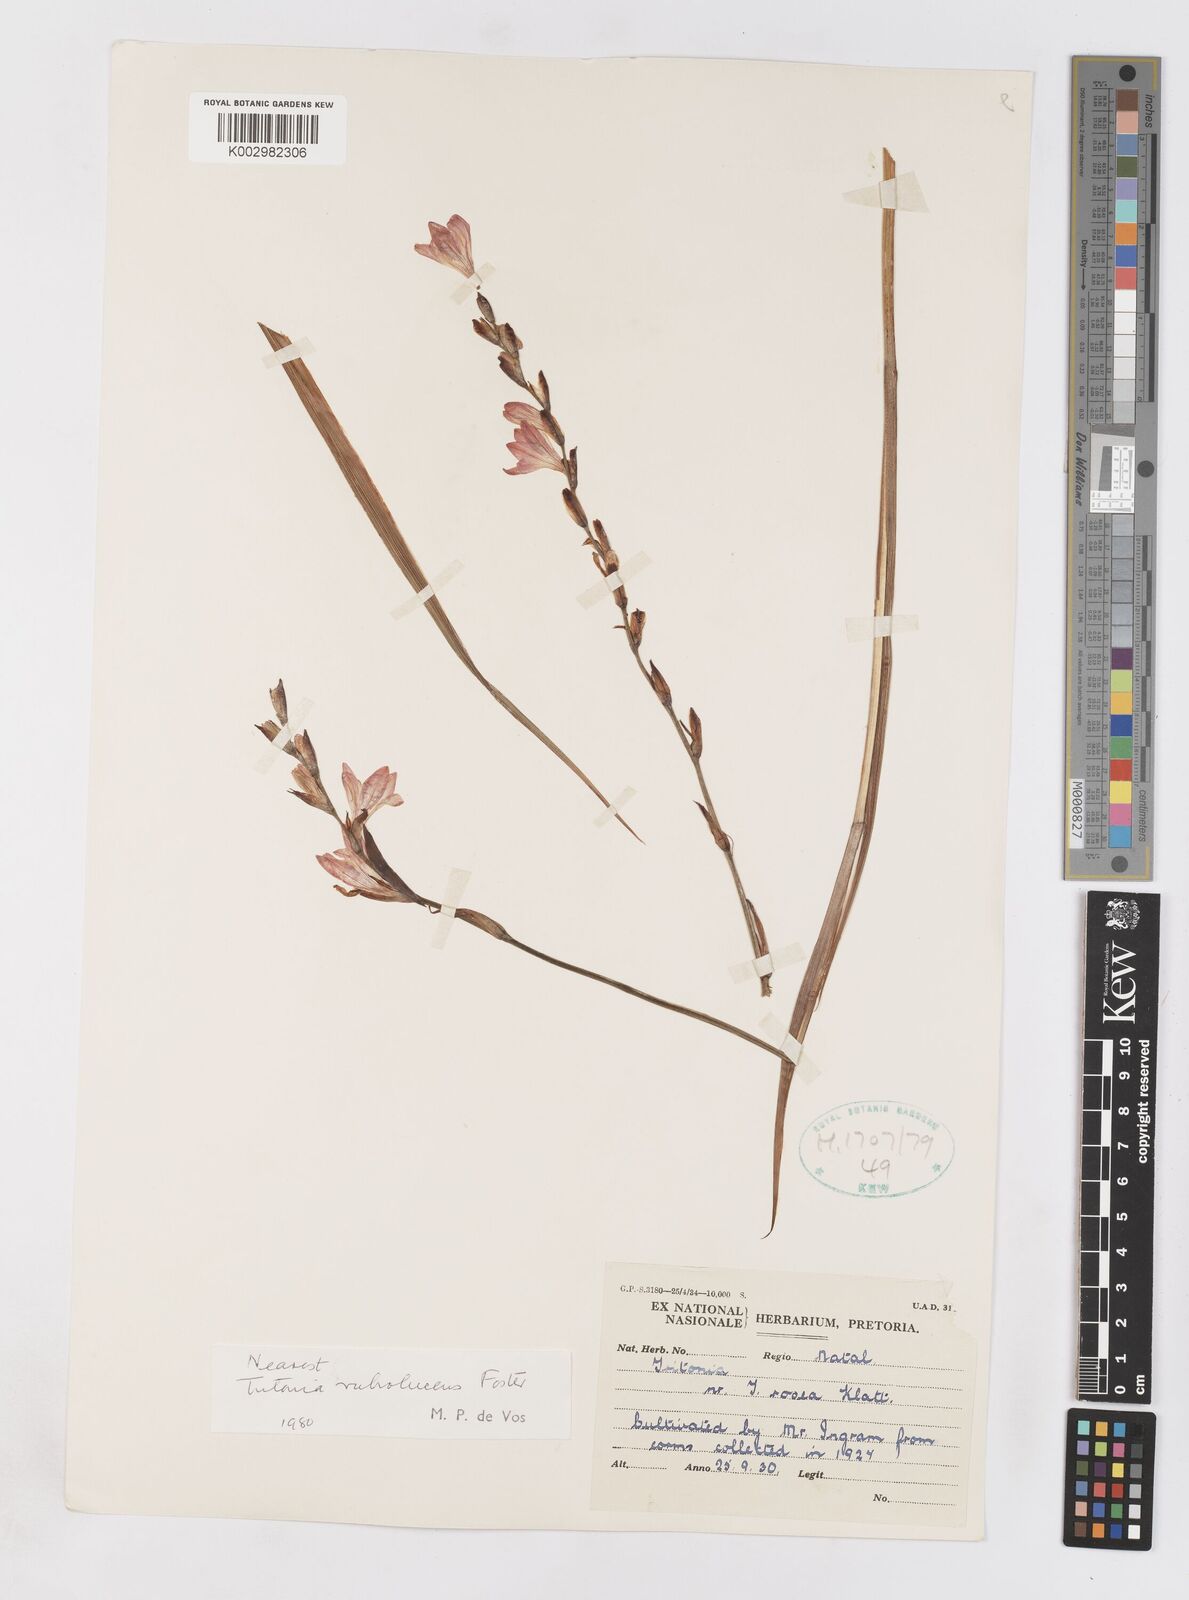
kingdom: Plantae
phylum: Tracheophyta
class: Liliopsida
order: Asparagales
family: Iridaceae
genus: Tritonia
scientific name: Tritonia disticha
